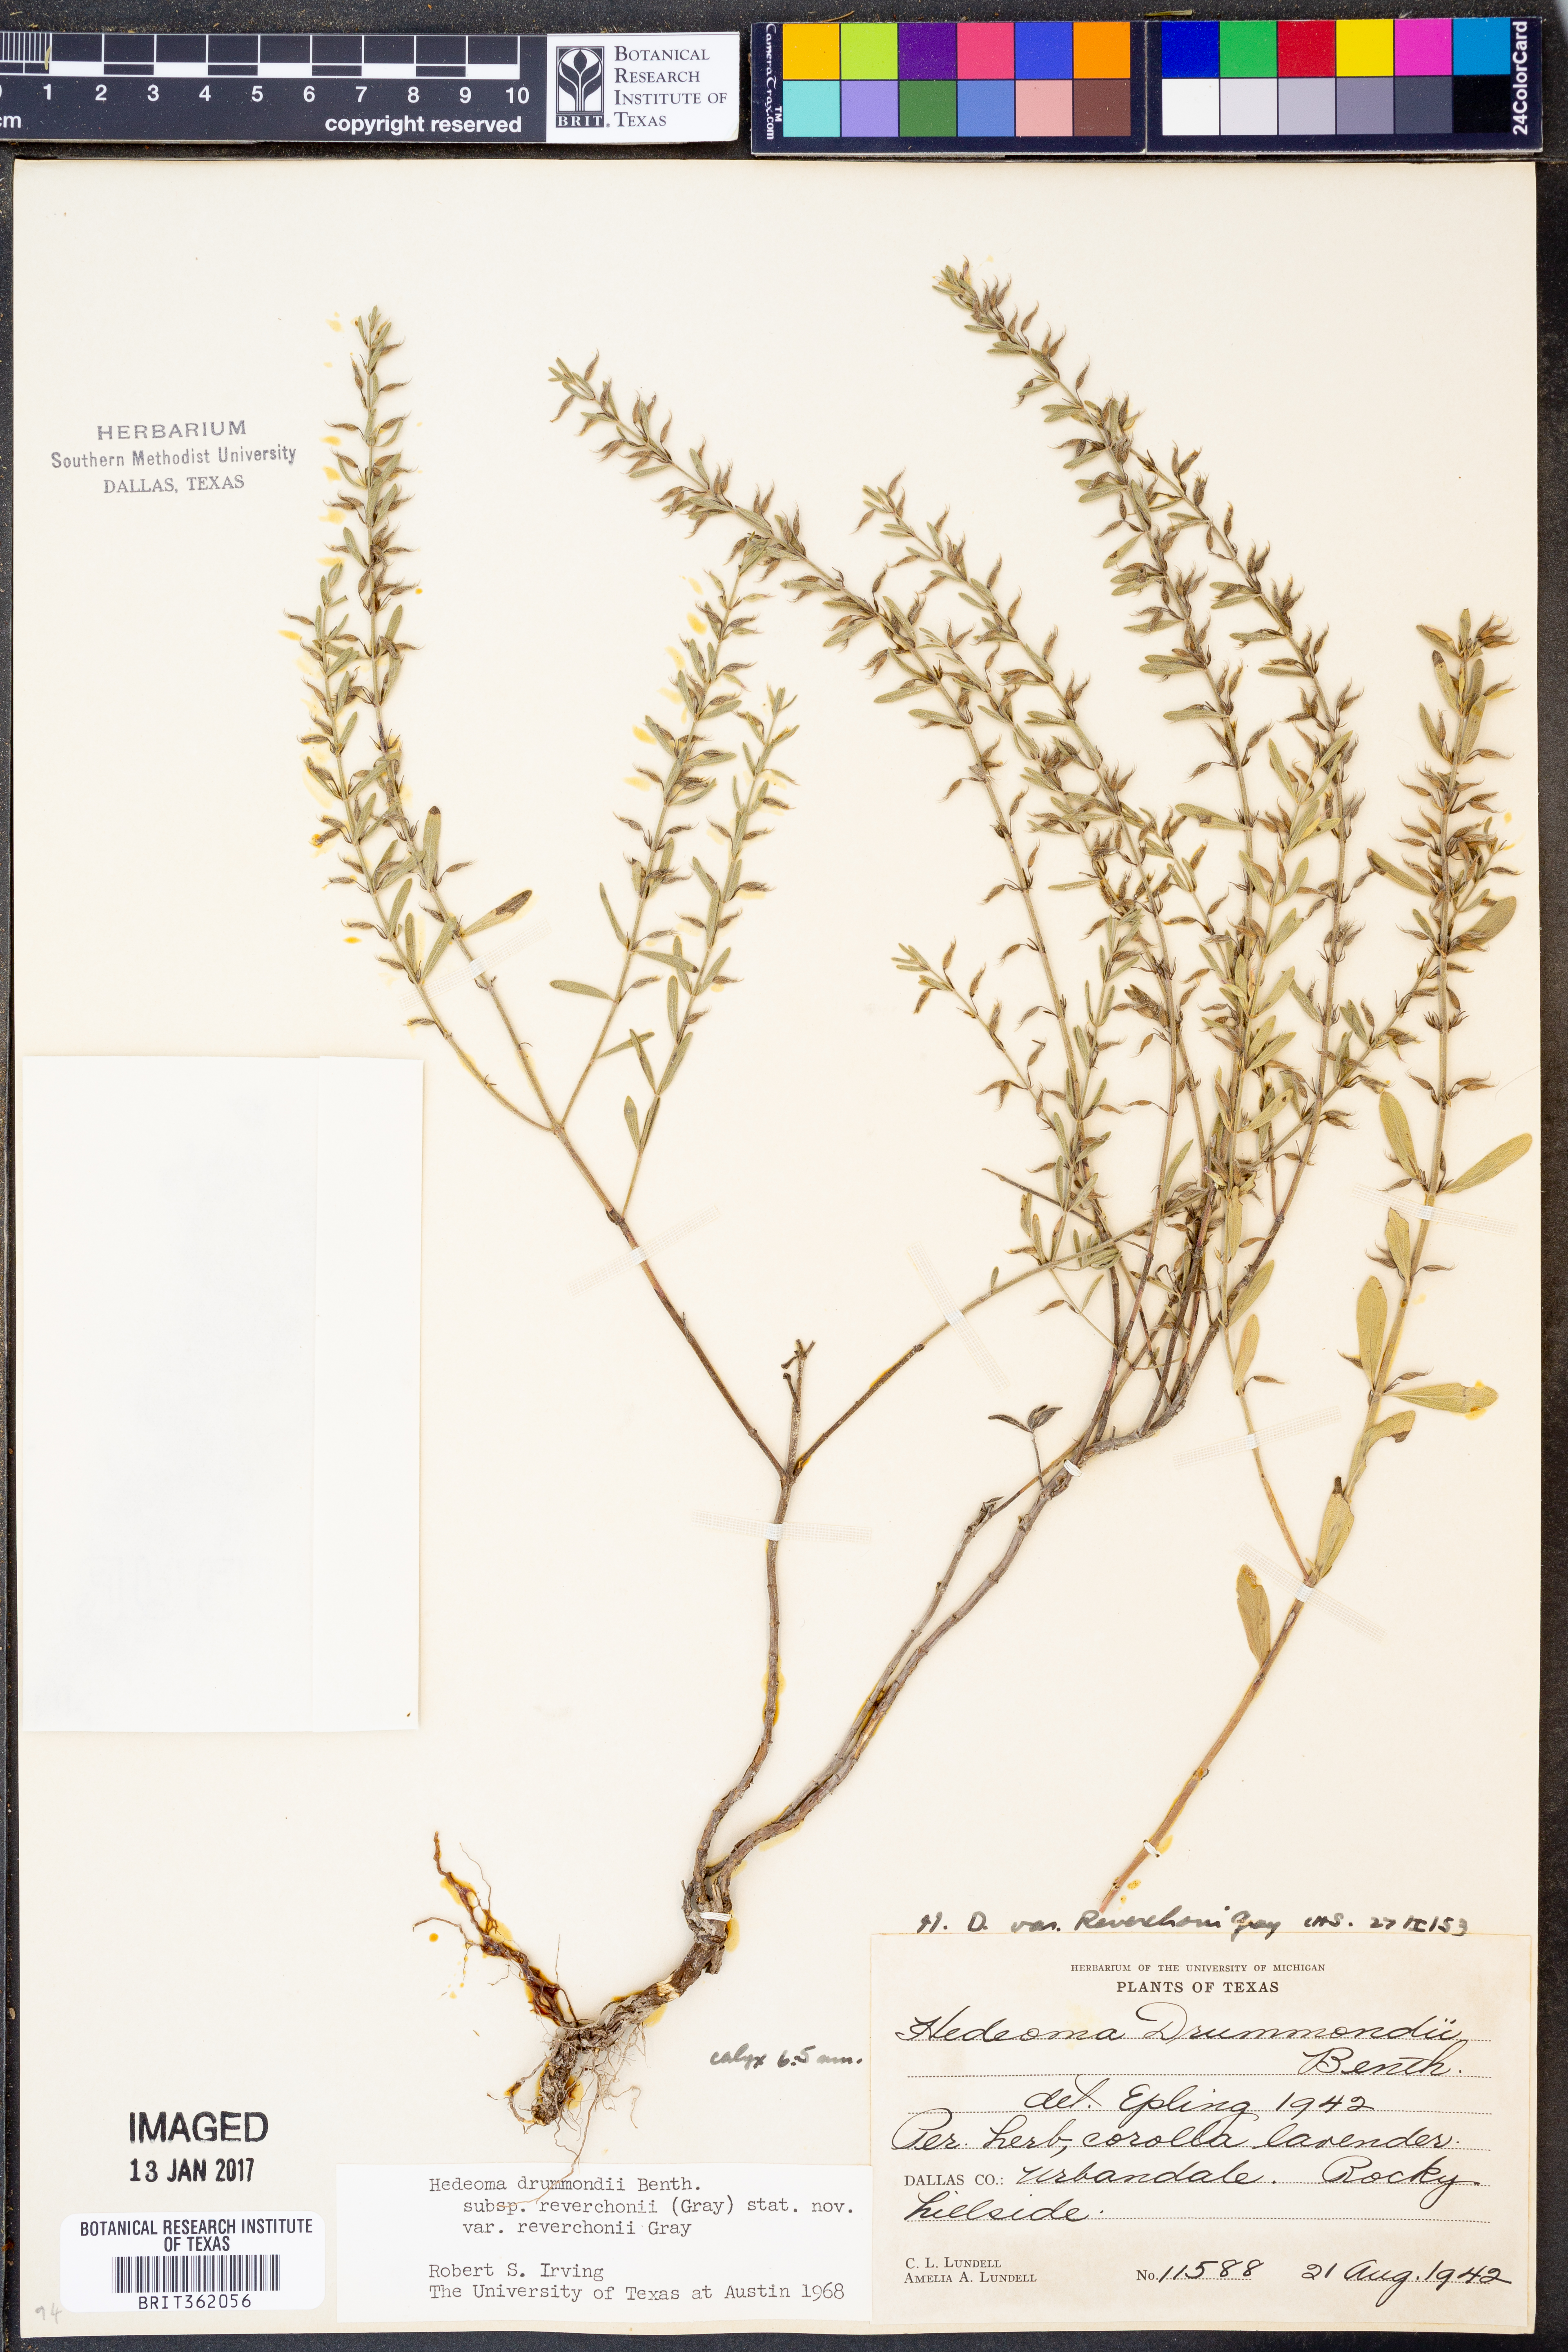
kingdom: Plantae
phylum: Tracheophyta
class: Magnoliopsida
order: Lamiales
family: Lamiaceae
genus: Hedeoma
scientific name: Hedeoma reverchonii
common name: Reverchon's false penny-royal
